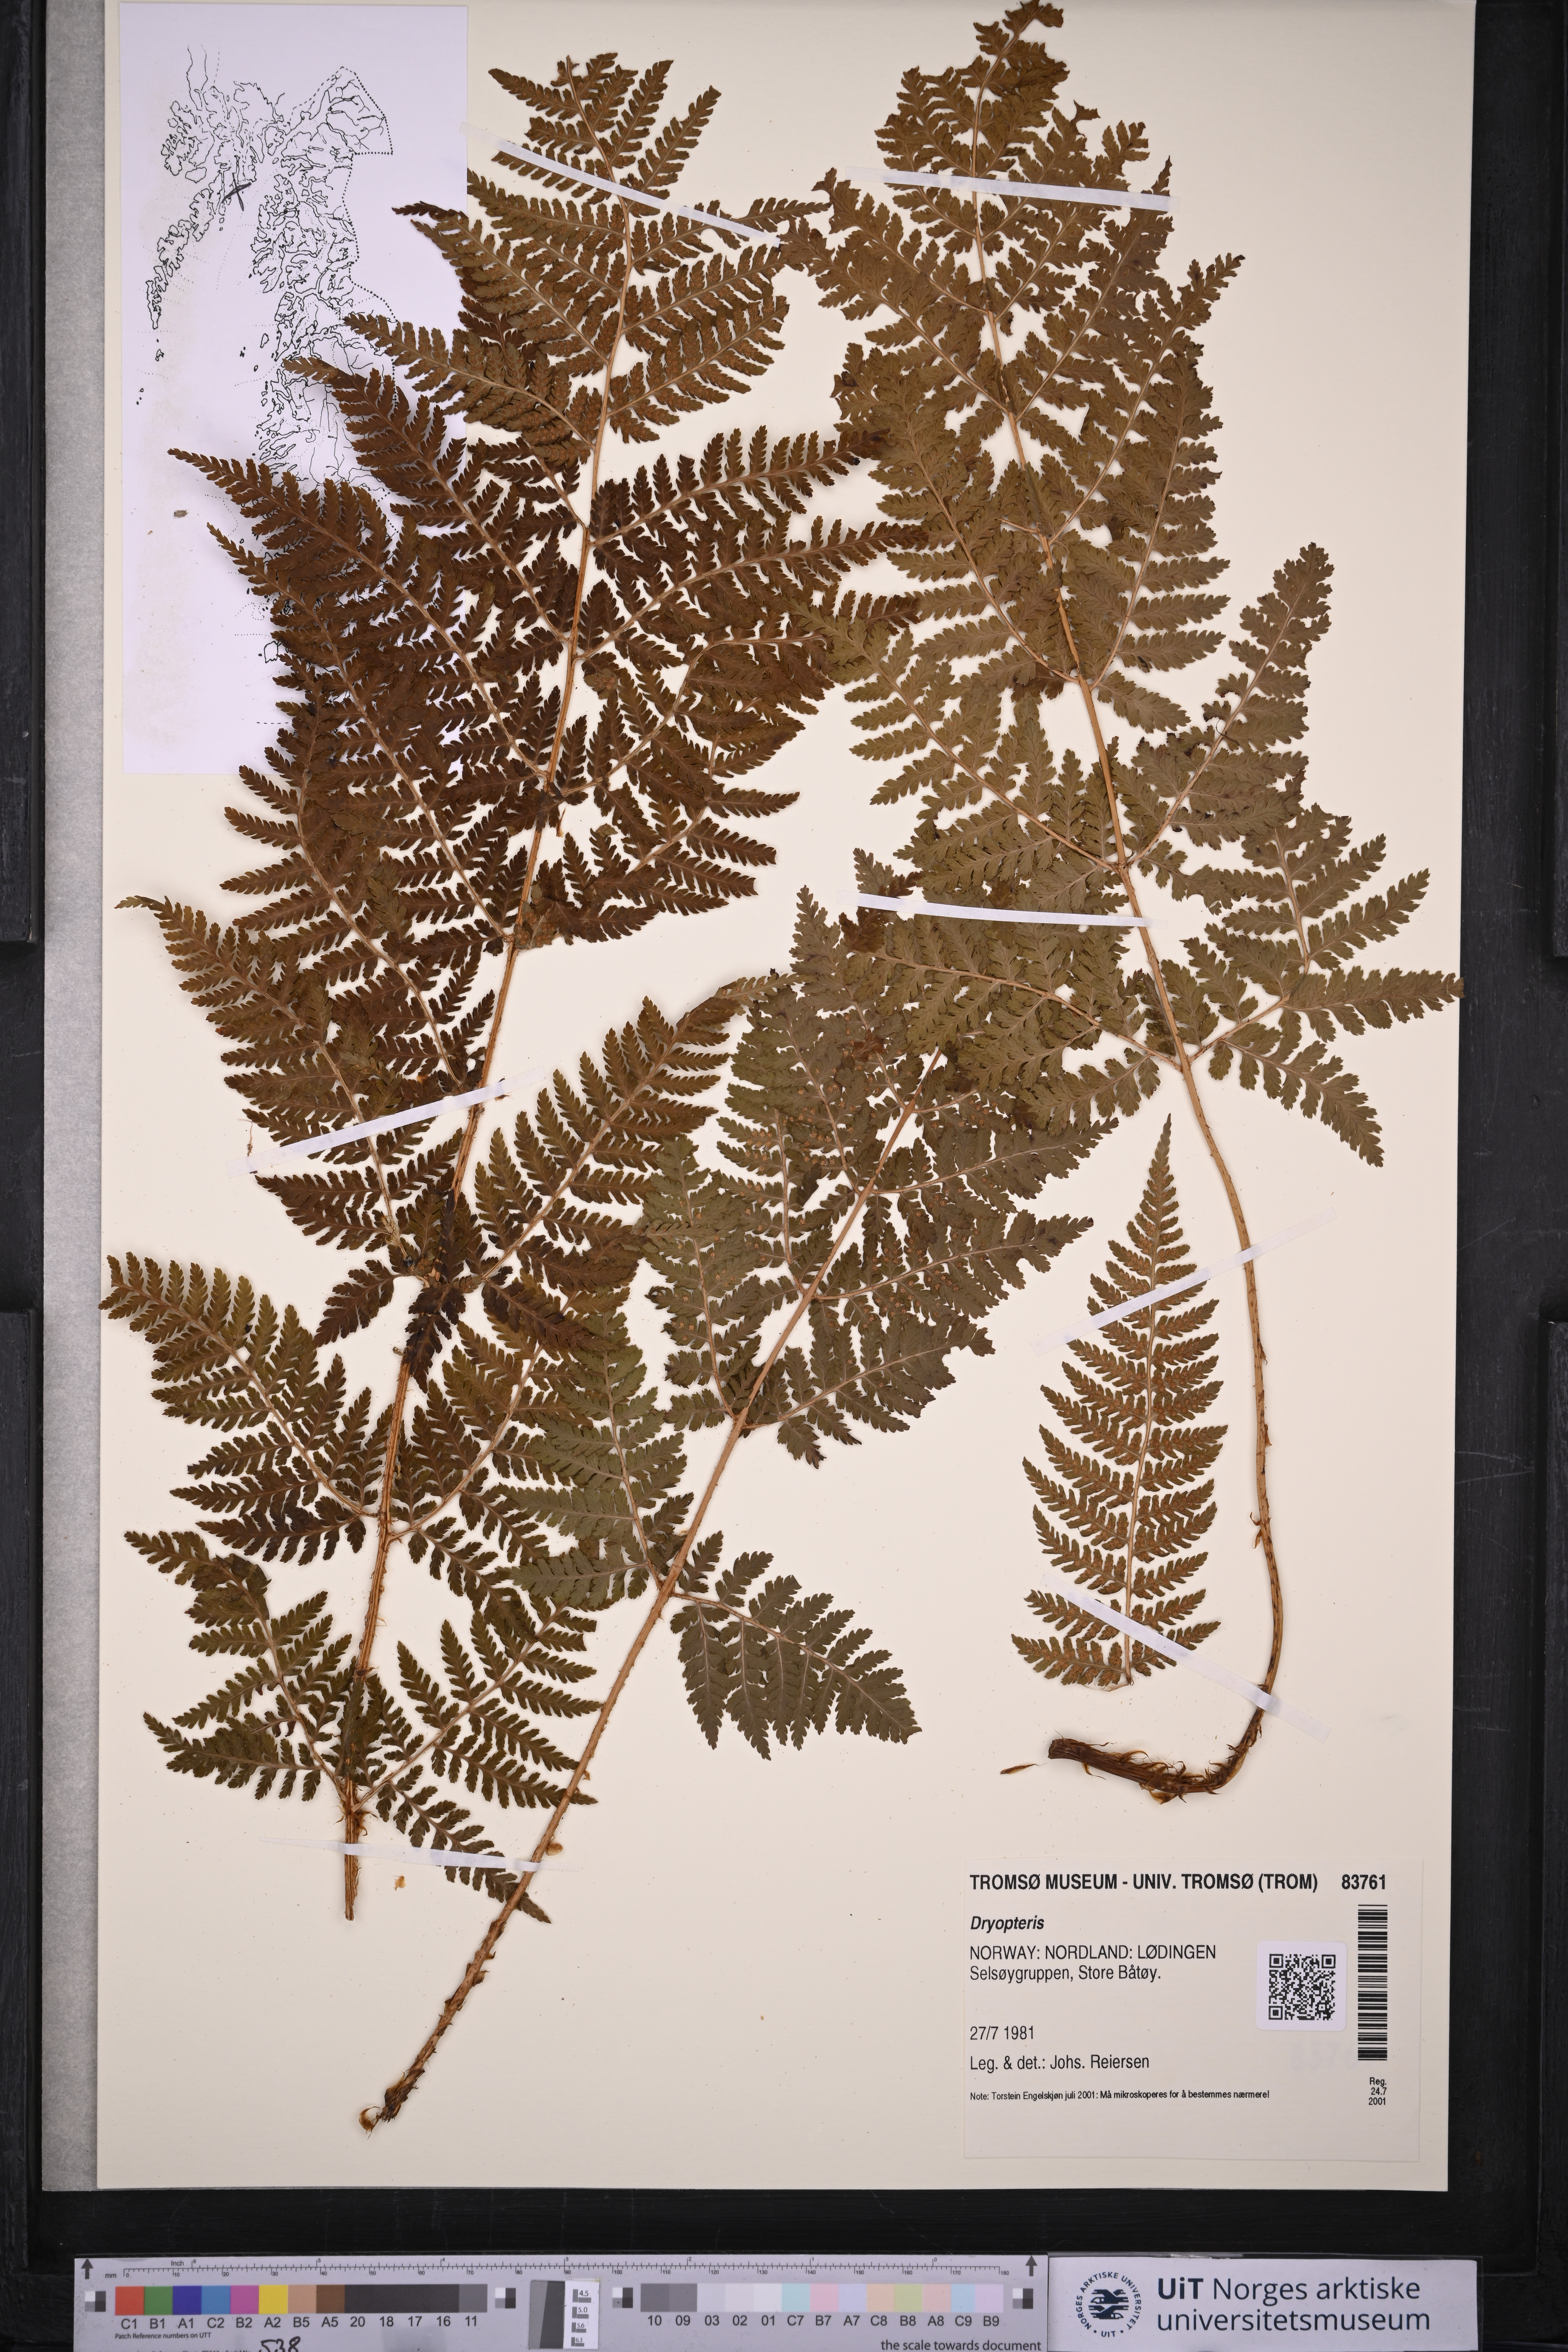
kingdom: Plantae
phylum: Tracheophyta
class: Polypodiopsida
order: Polypodiales
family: Dryopteridaceae
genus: Dryopteris
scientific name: Dryopteris
